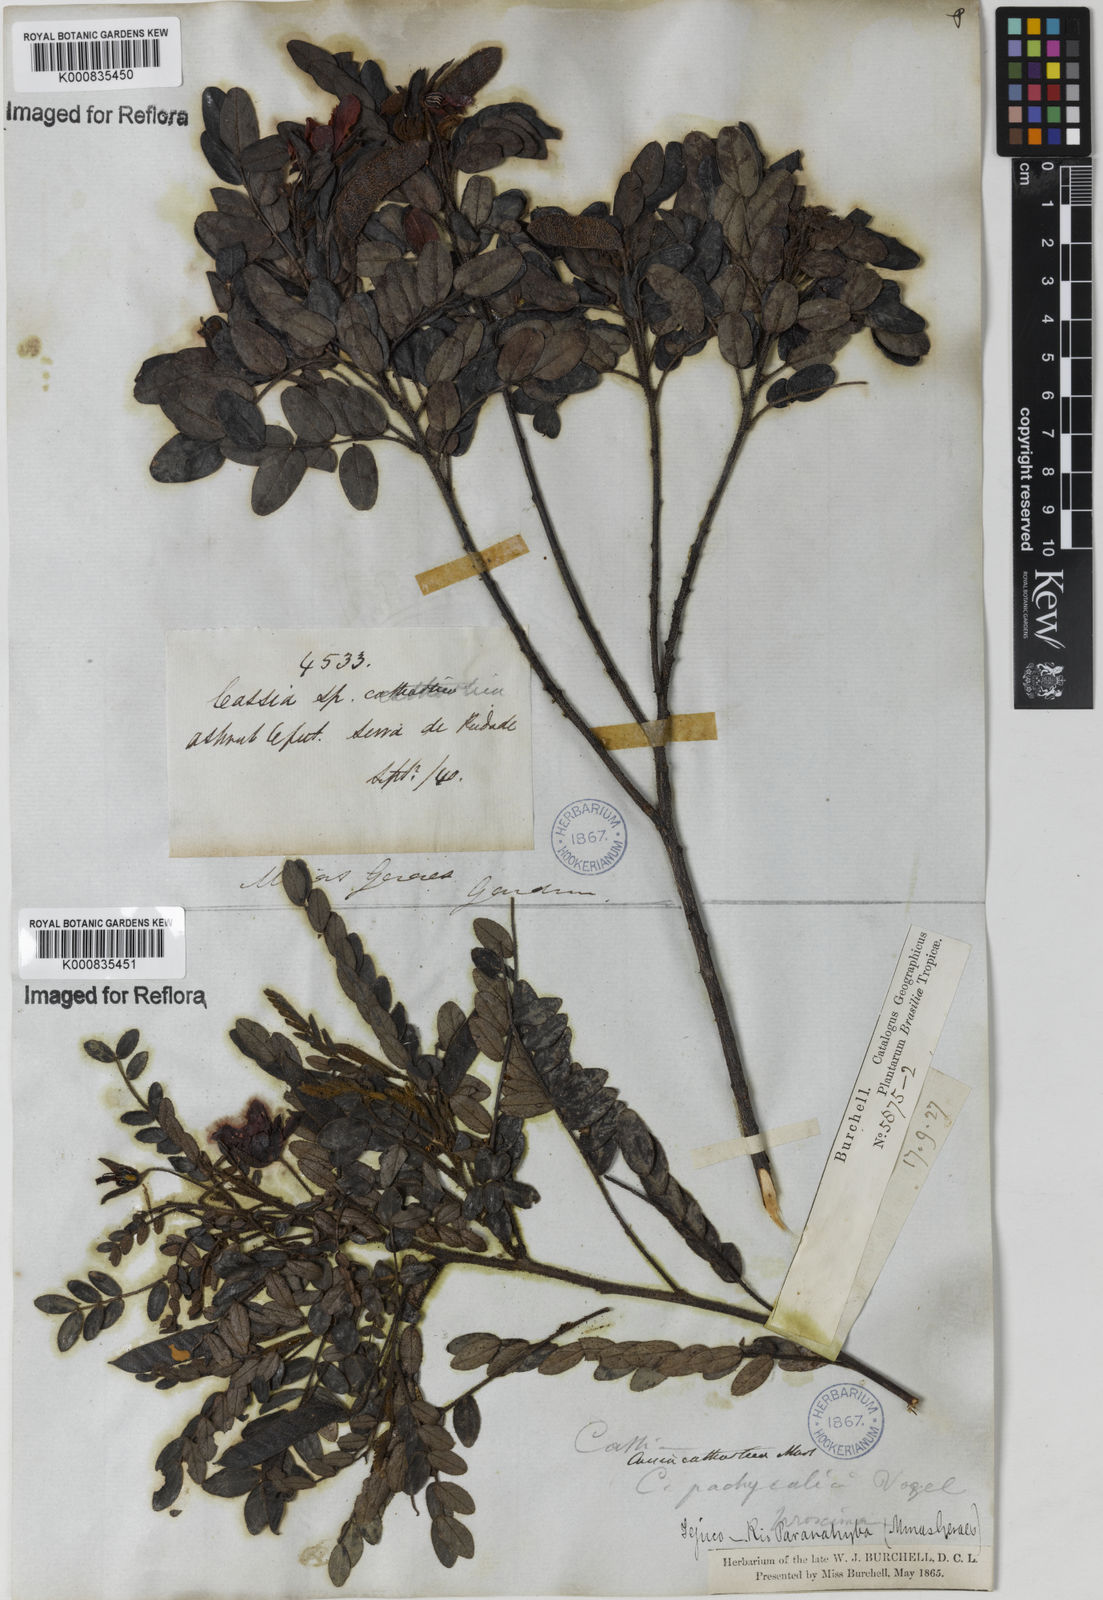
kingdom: Plantae
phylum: Tracheophyta
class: Magnoliopsida
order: Fabales
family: Fabaceae
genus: Chamaecrista
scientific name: Chamaecrista cathartica
